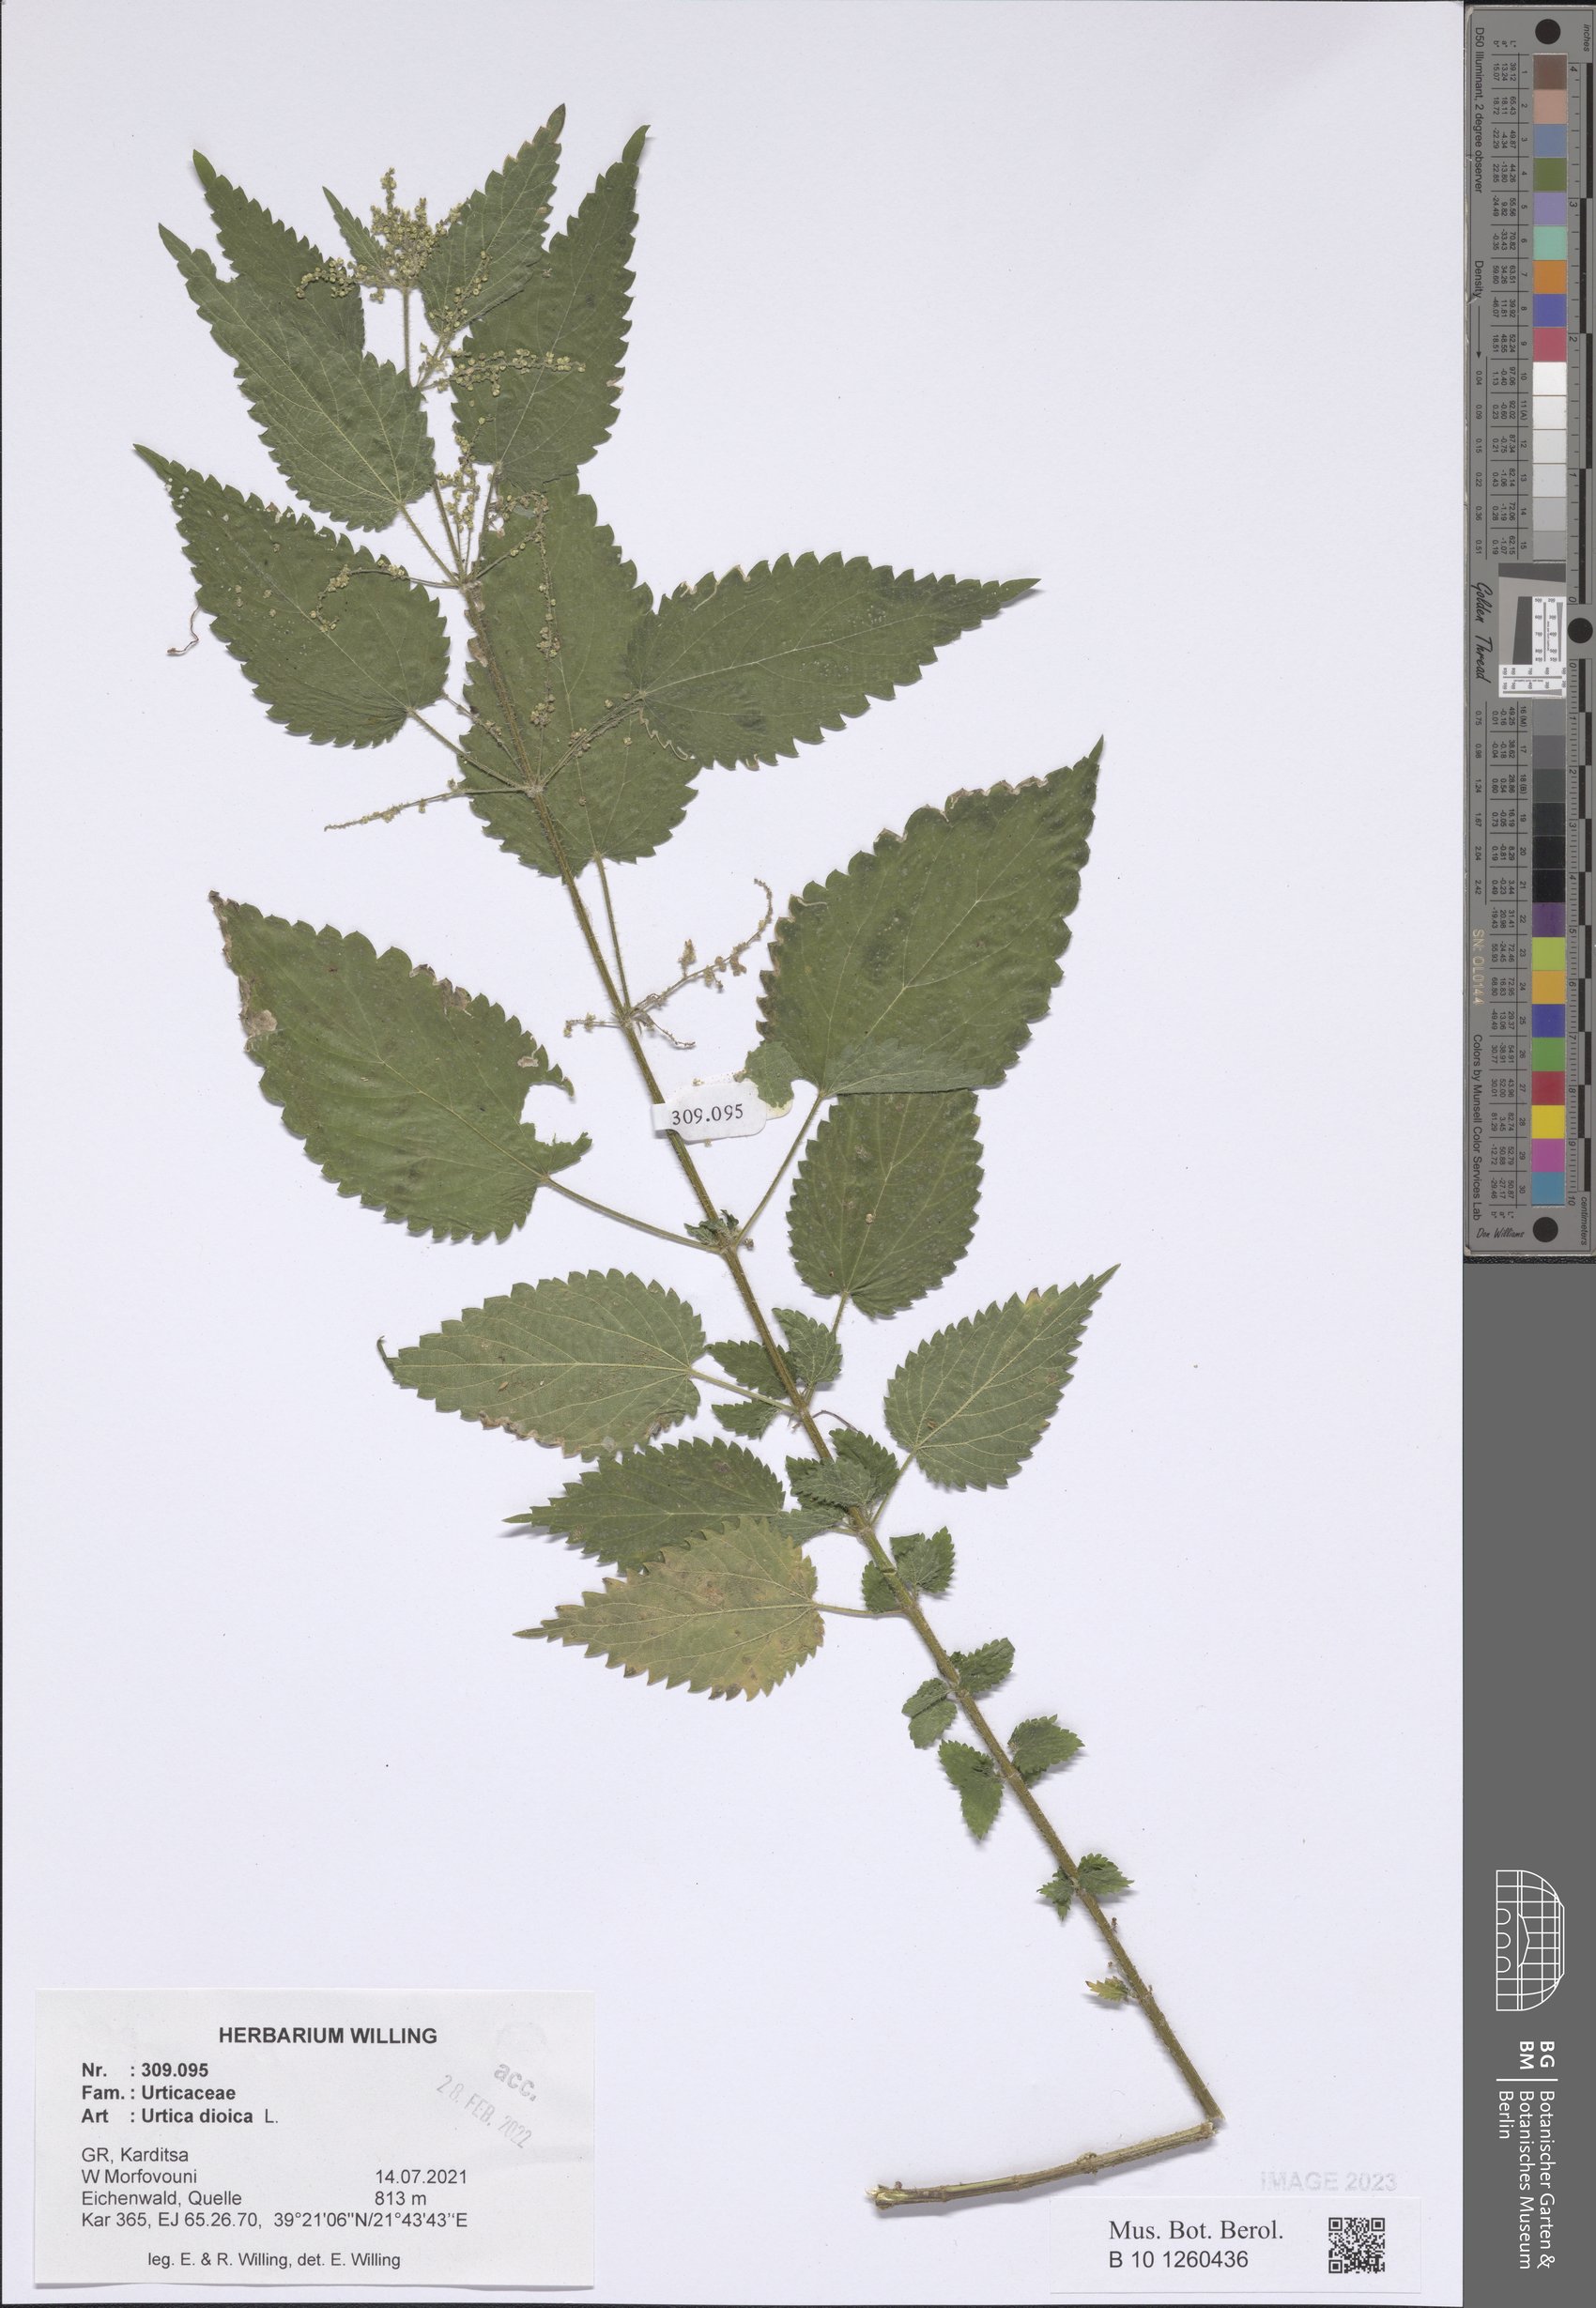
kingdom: Plantae
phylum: Tracheophyta
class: Magnoliopsida
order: Rosales
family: Urticaceae
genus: Urtica
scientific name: Urtica dioica
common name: Common nettle
